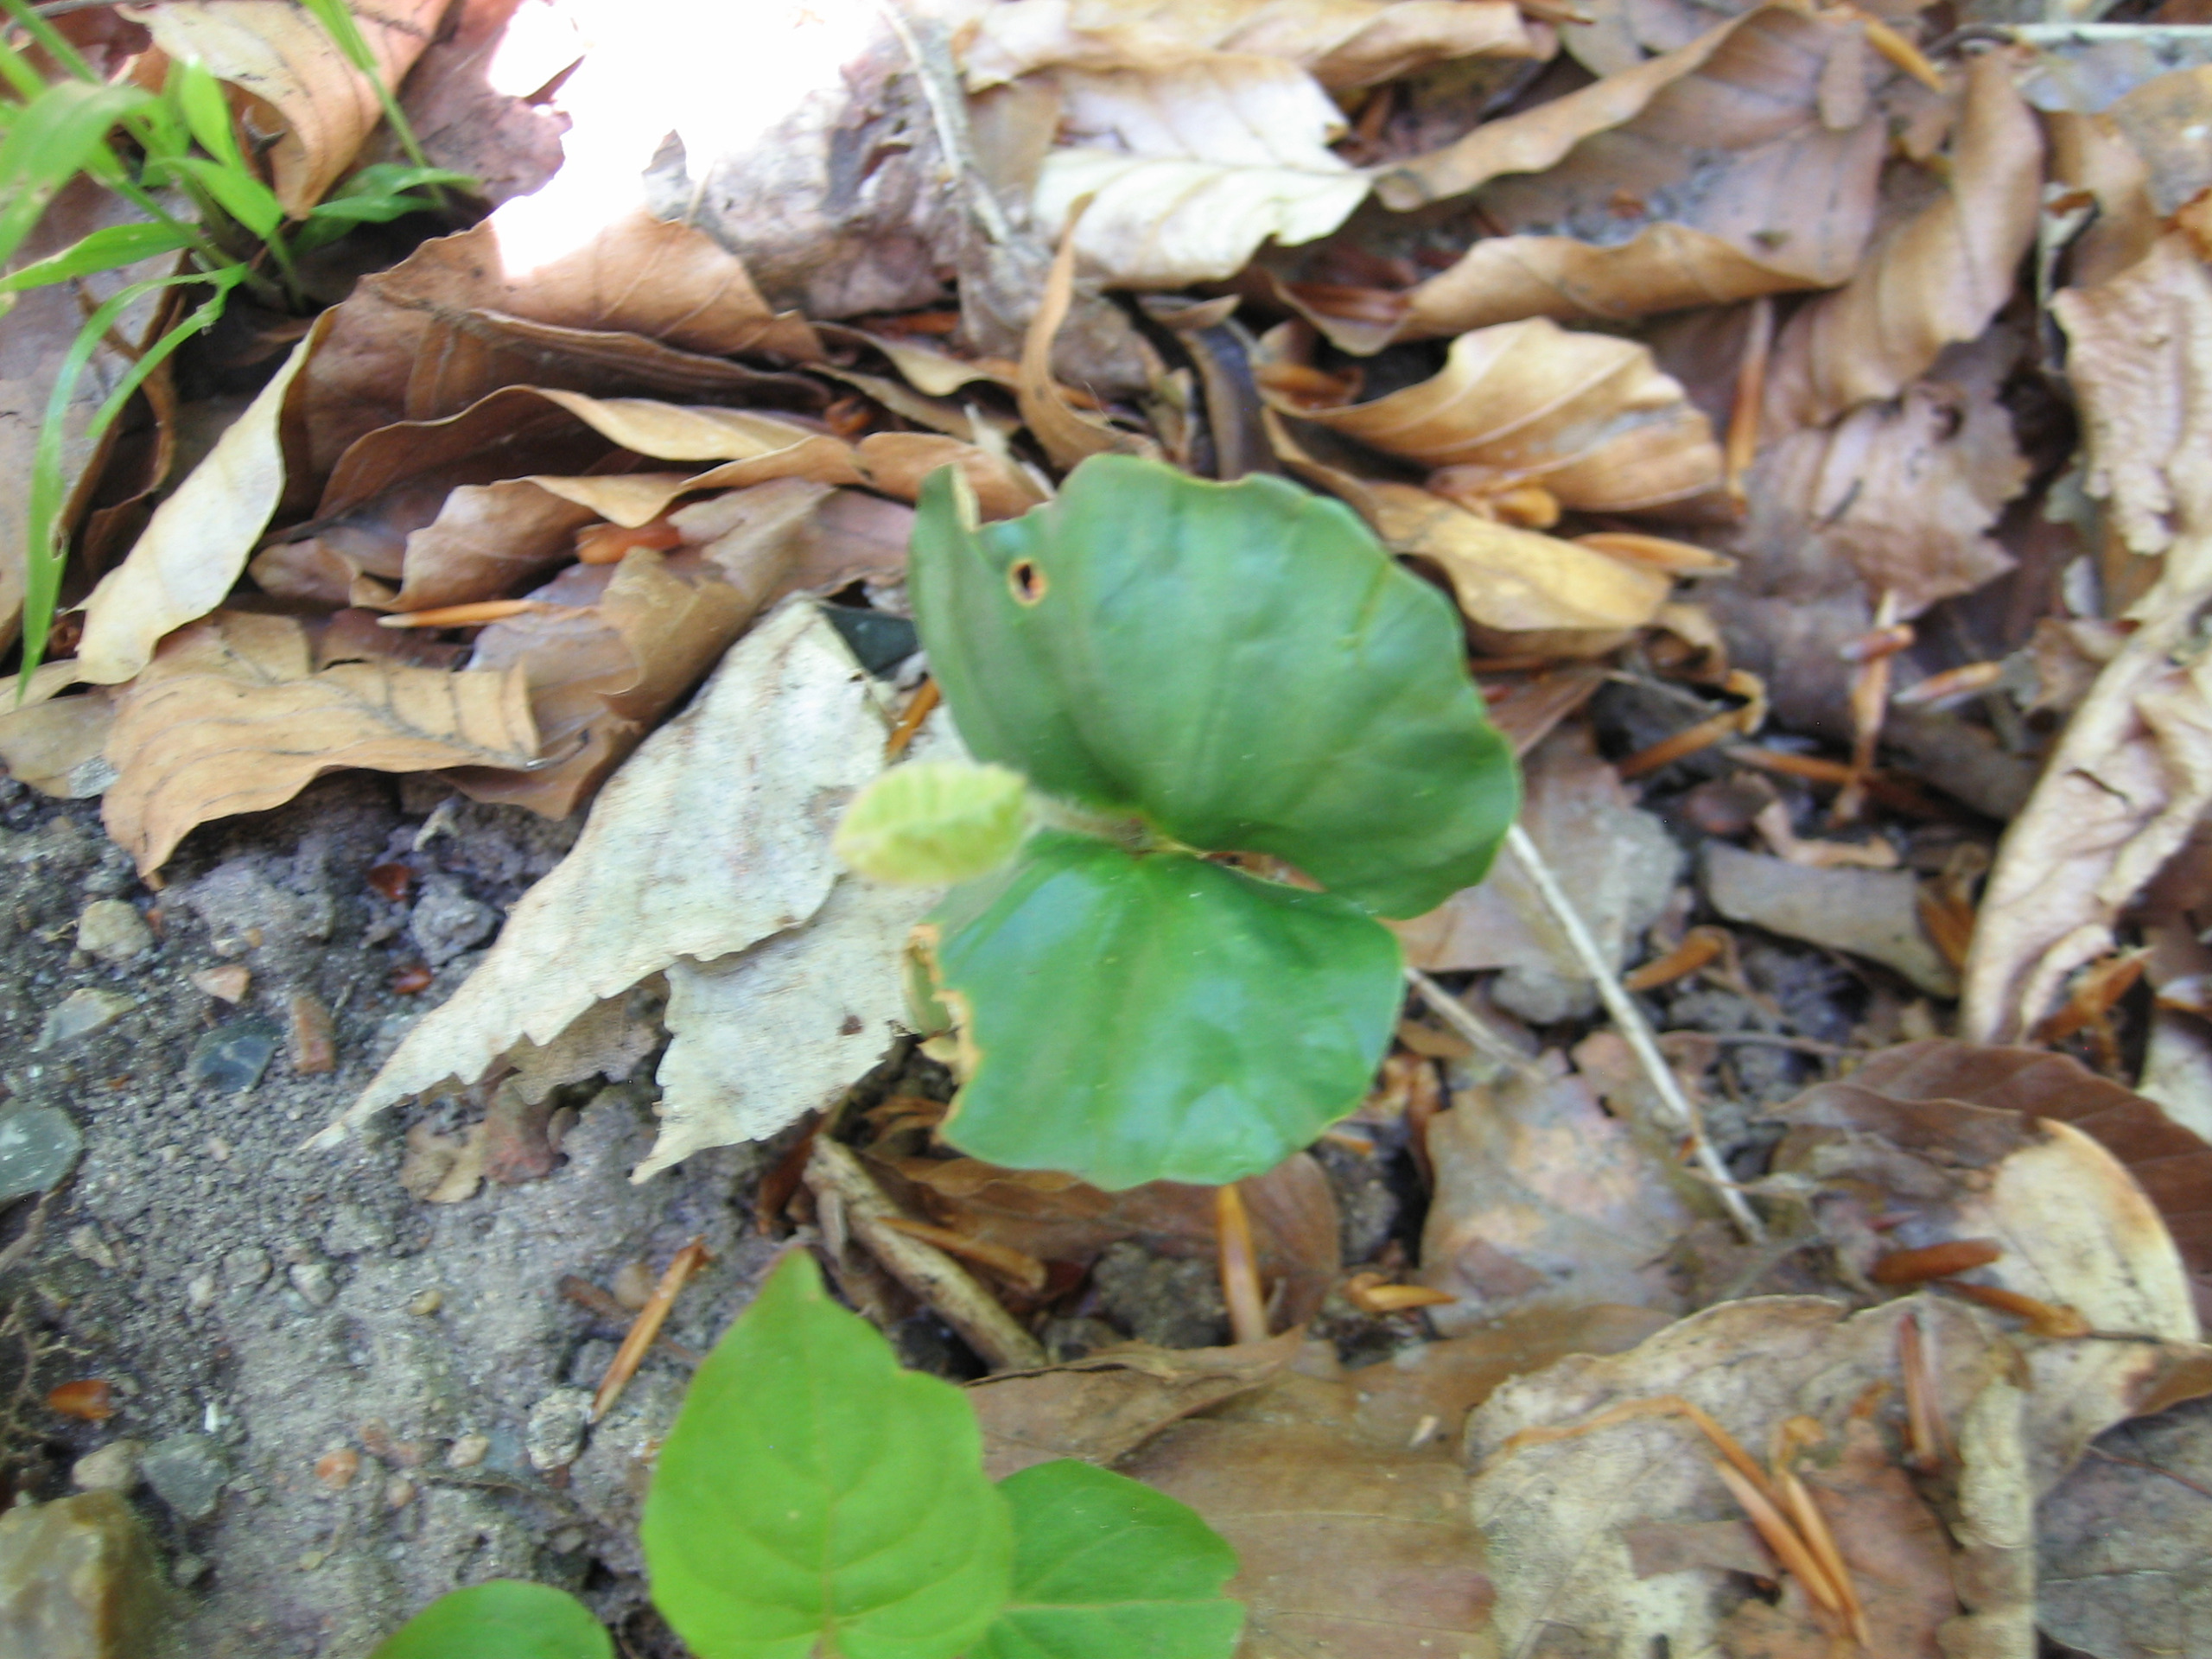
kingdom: Plantae
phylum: Tracheophyta
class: Magnoliopsida
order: Fagales
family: Fagaceae
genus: Fagus
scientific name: Fagus sylvatica
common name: Bøg
